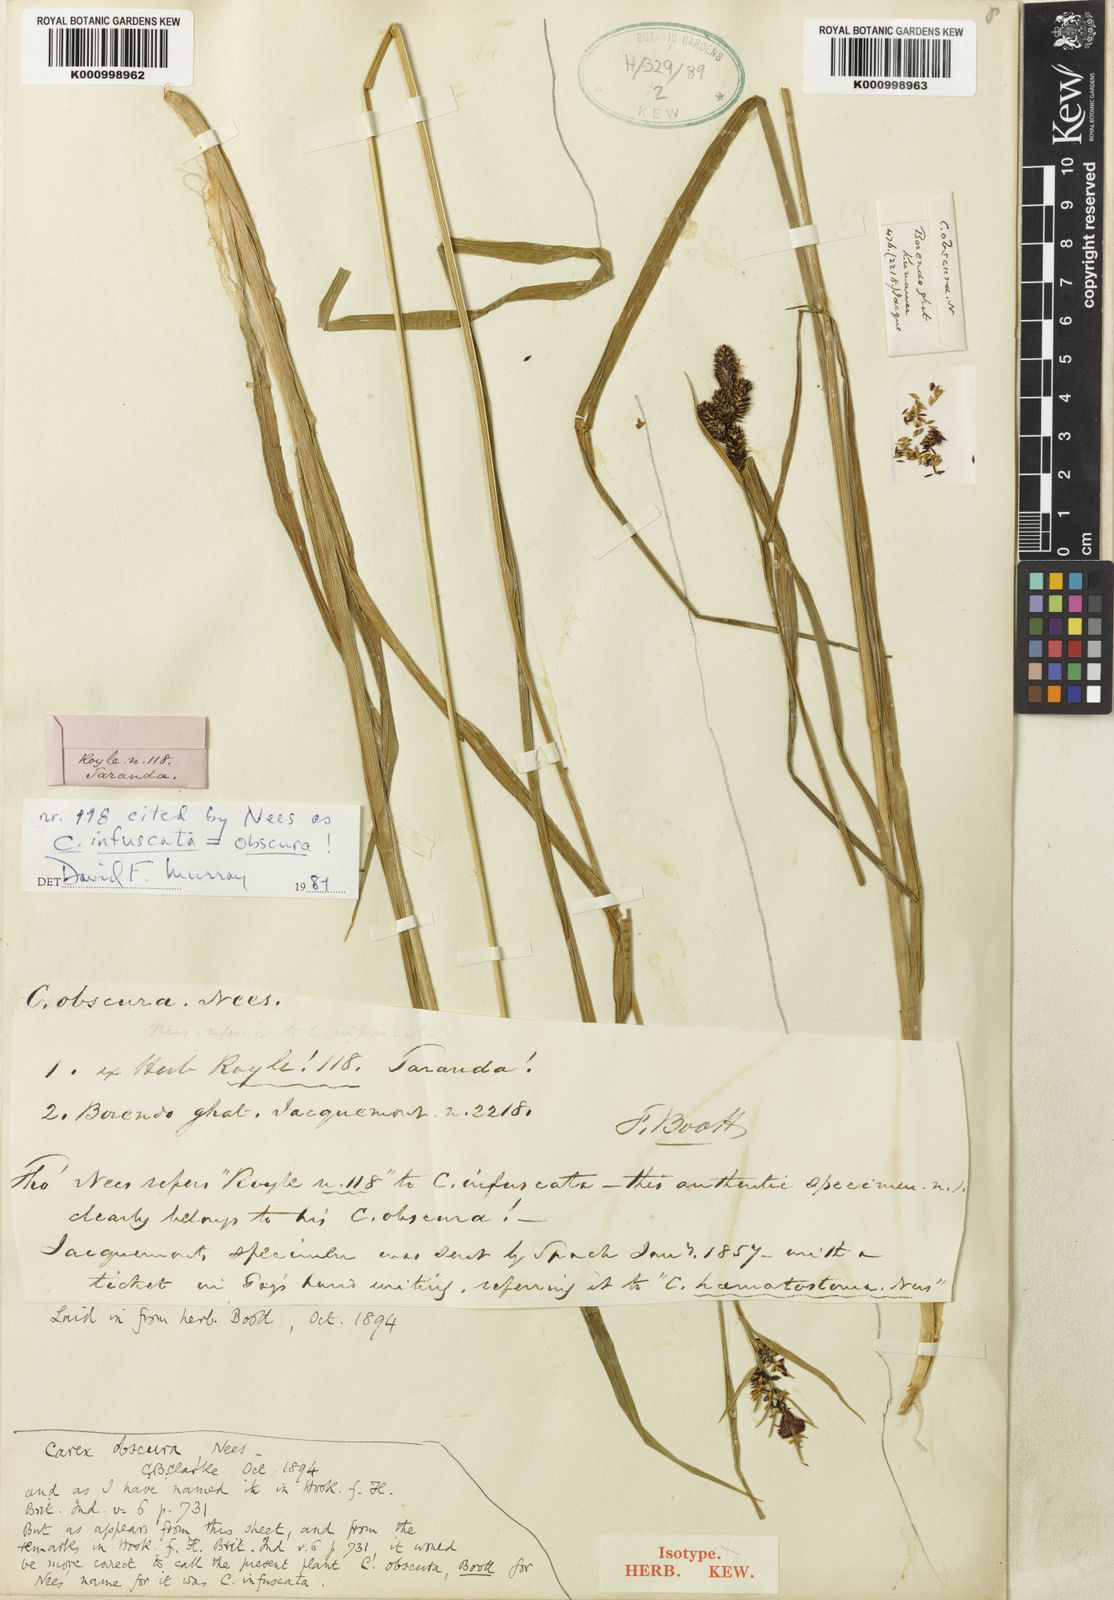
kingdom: Plantae
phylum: Tracheophyta
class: Liliopsida
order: Poales
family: Cyperaceae
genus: Carex
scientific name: Carex norvegica
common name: Close-headed alpine-sedge
